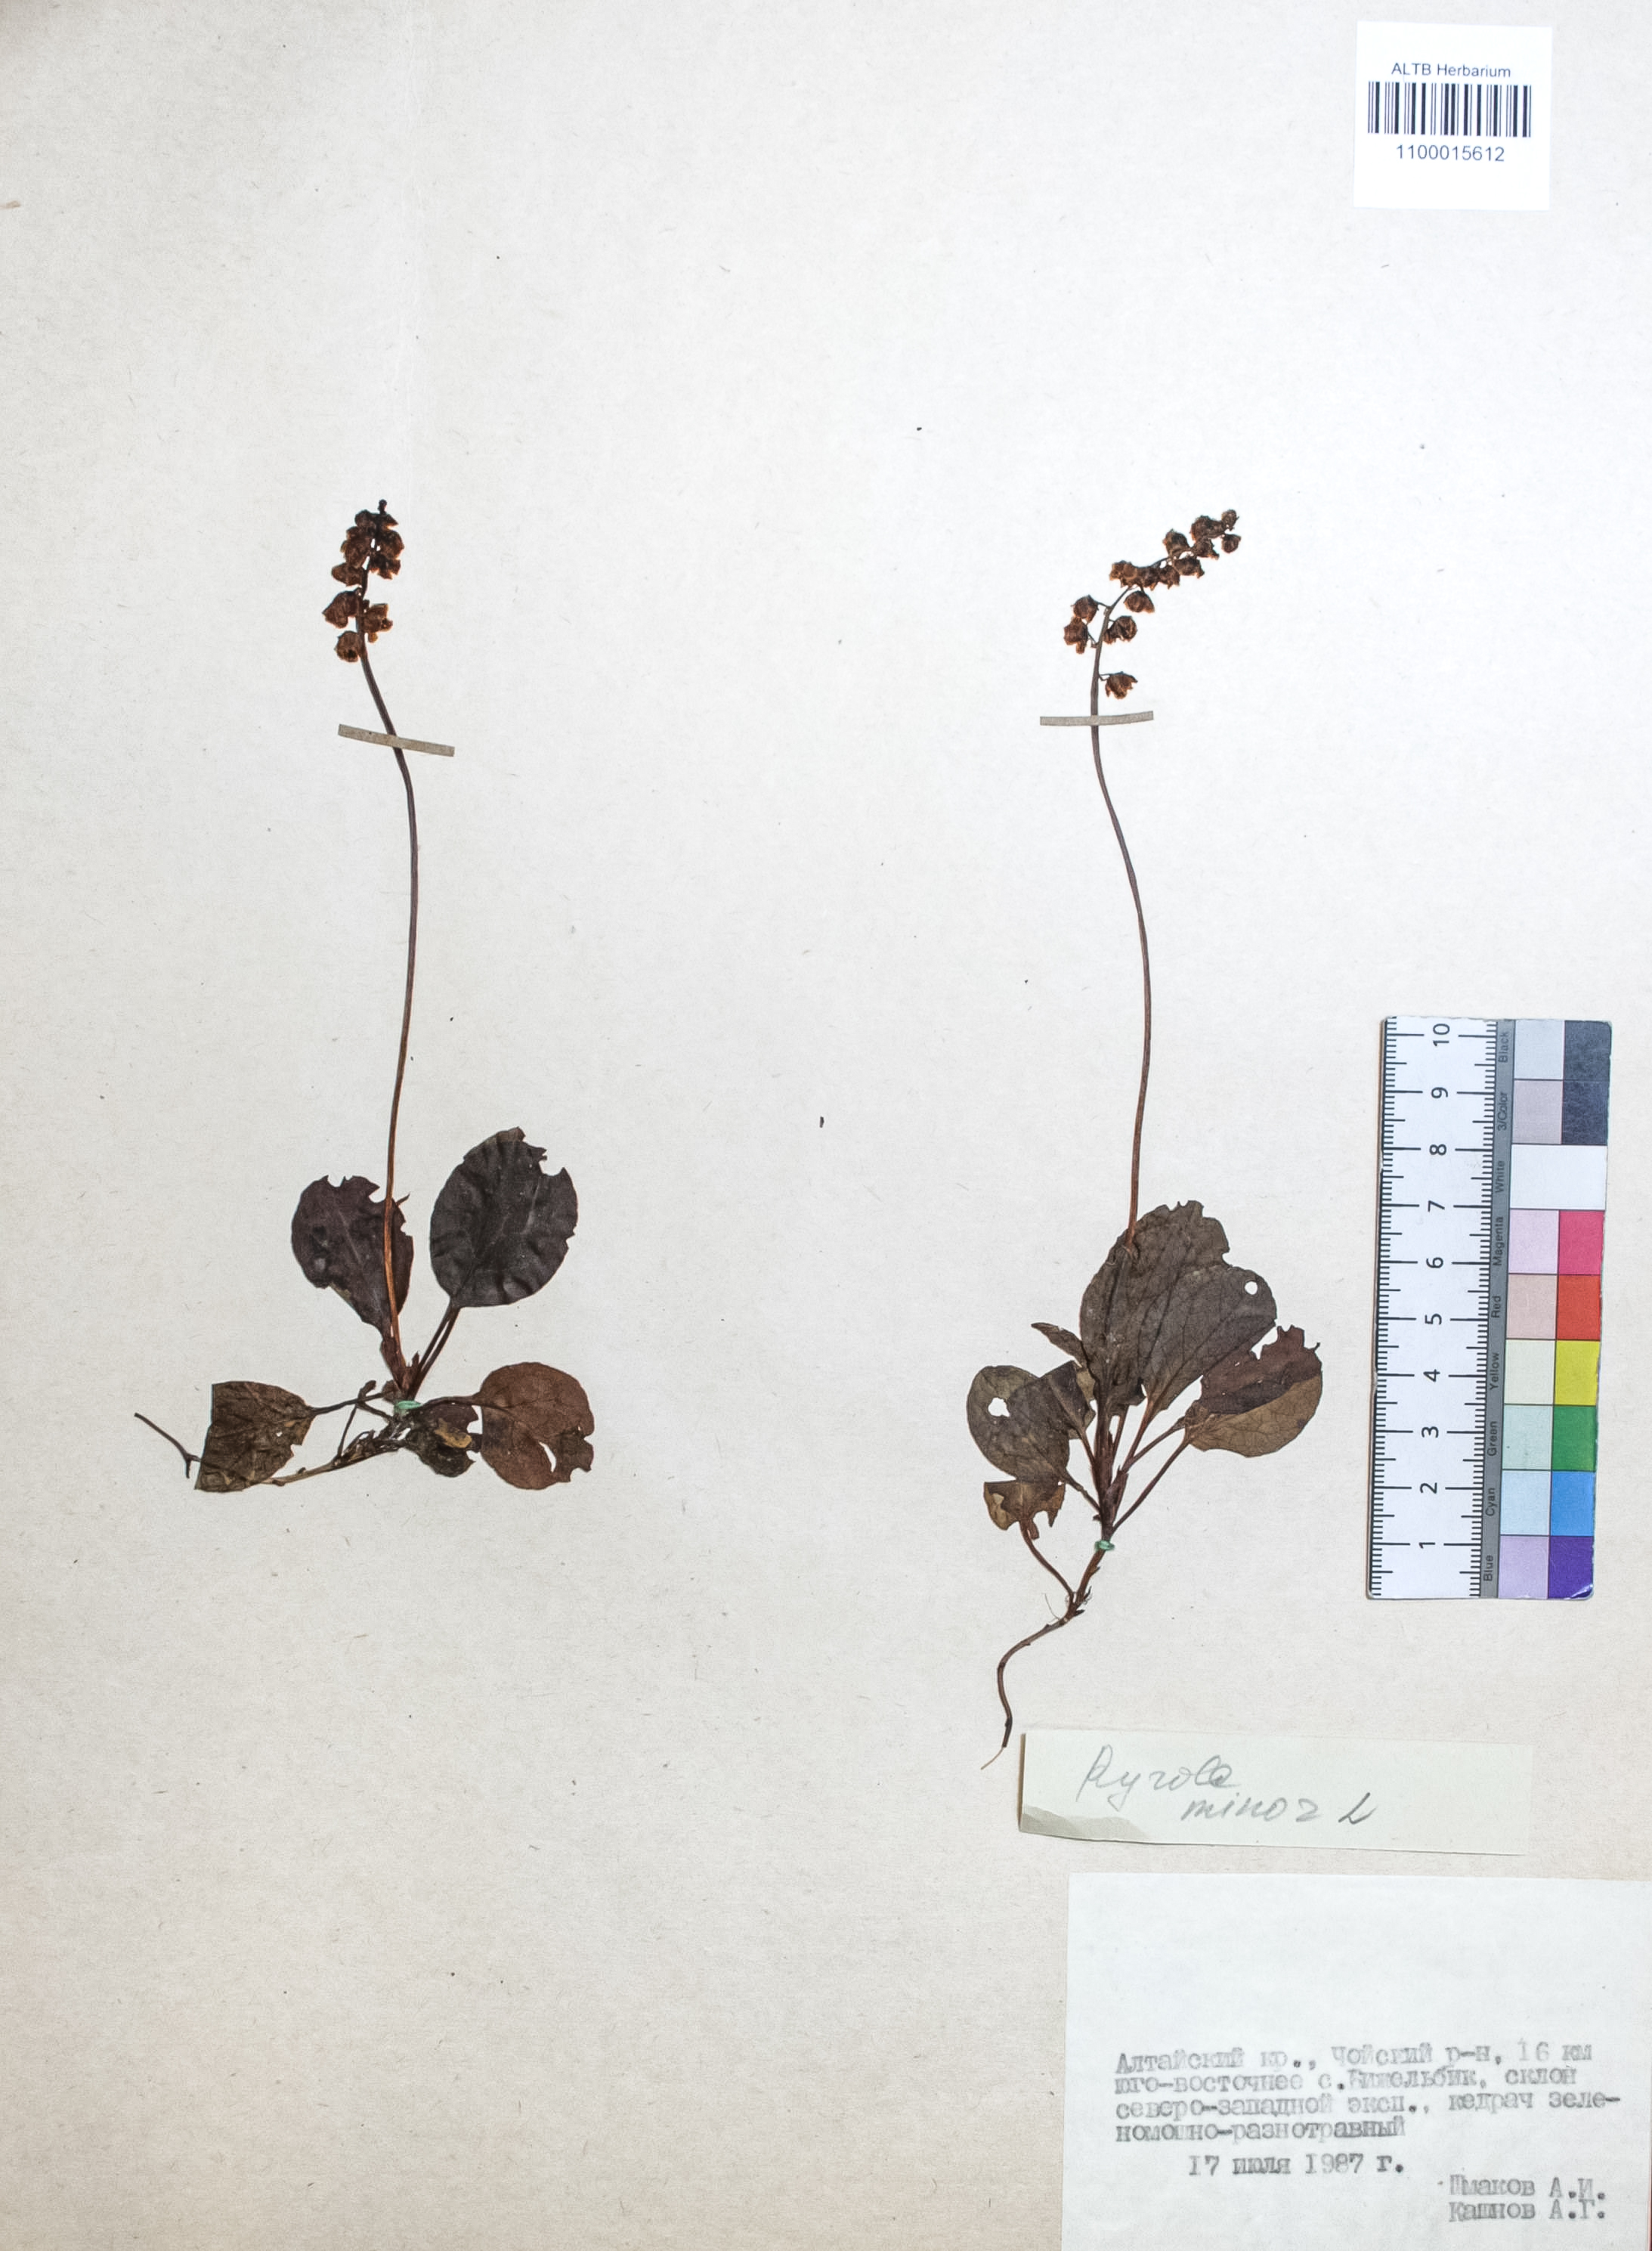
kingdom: Plantae
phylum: Tracheophyta
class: Magnoliopsida
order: Ericales
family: Ericaceae
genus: Pyrola
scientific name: Pyrola minor
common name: Common wintergreen
